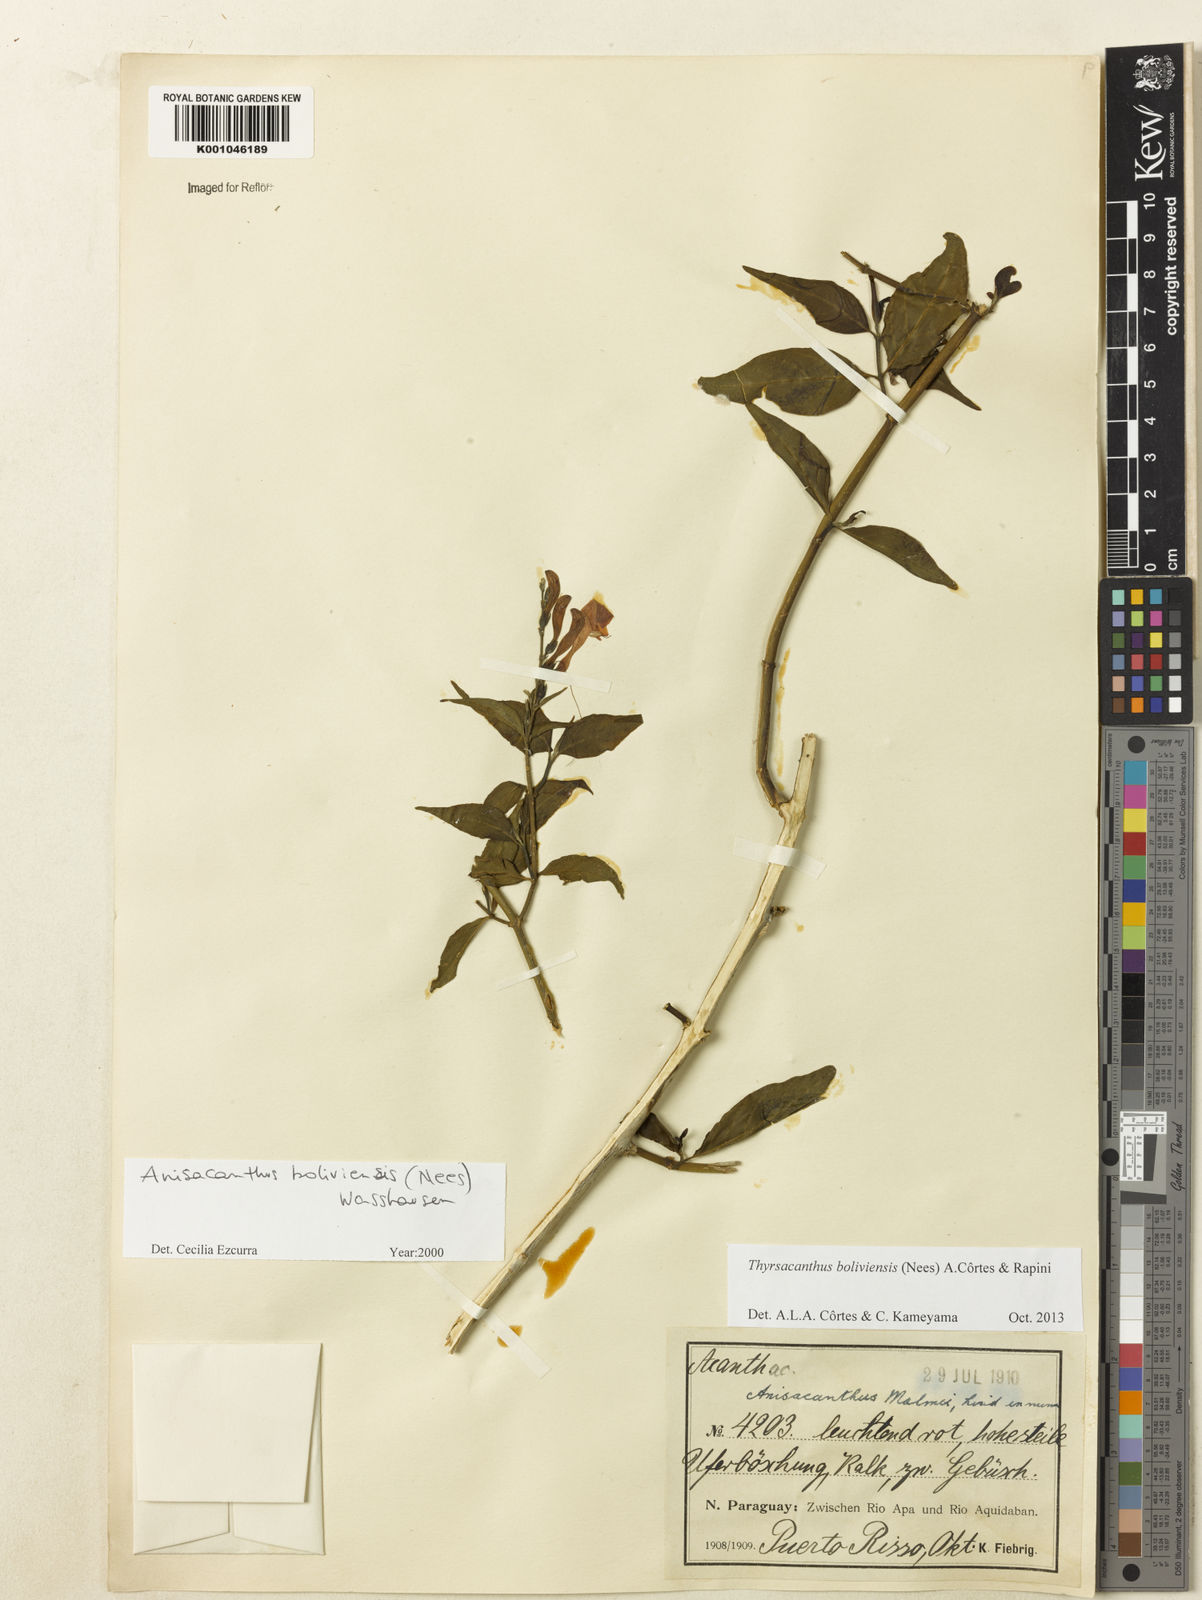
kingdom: Plantae
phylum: Tracheophyta
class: Magnoliopsida
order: Lamiales
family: Acanthaceae
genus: Thyrsacanthus
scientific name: Thyrsacanthus boliviensis
